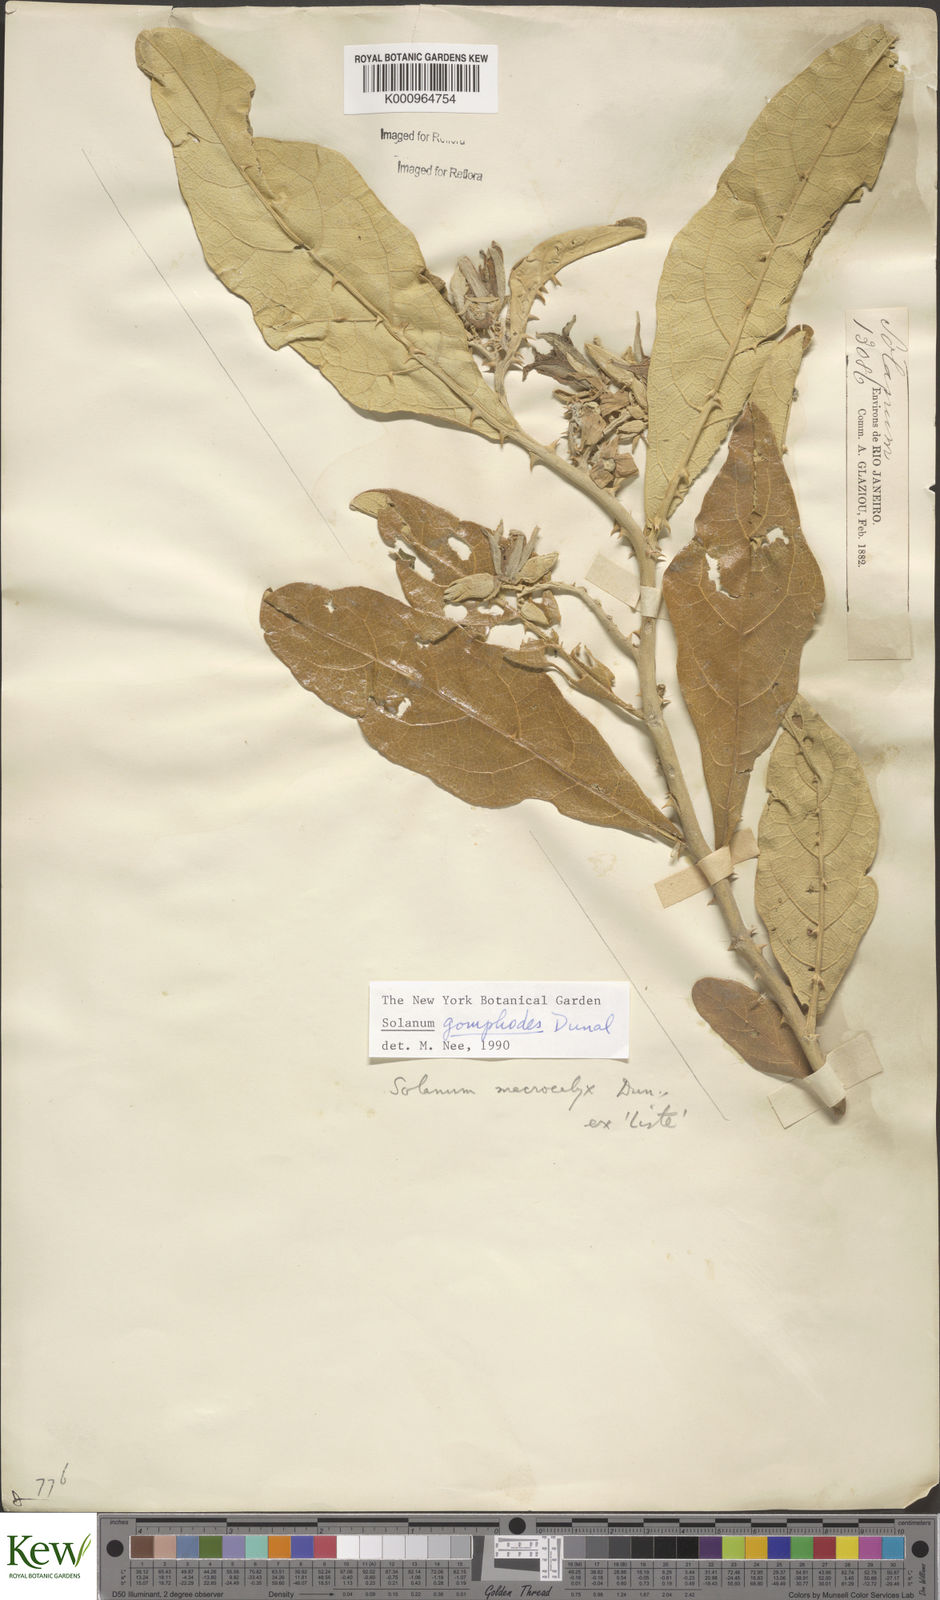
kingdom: Plantae
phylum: Tracheophyta
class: Magnoliopsida
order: Solanales
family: Solanaceae
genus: Solanum
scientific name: Solanum gomphodes
